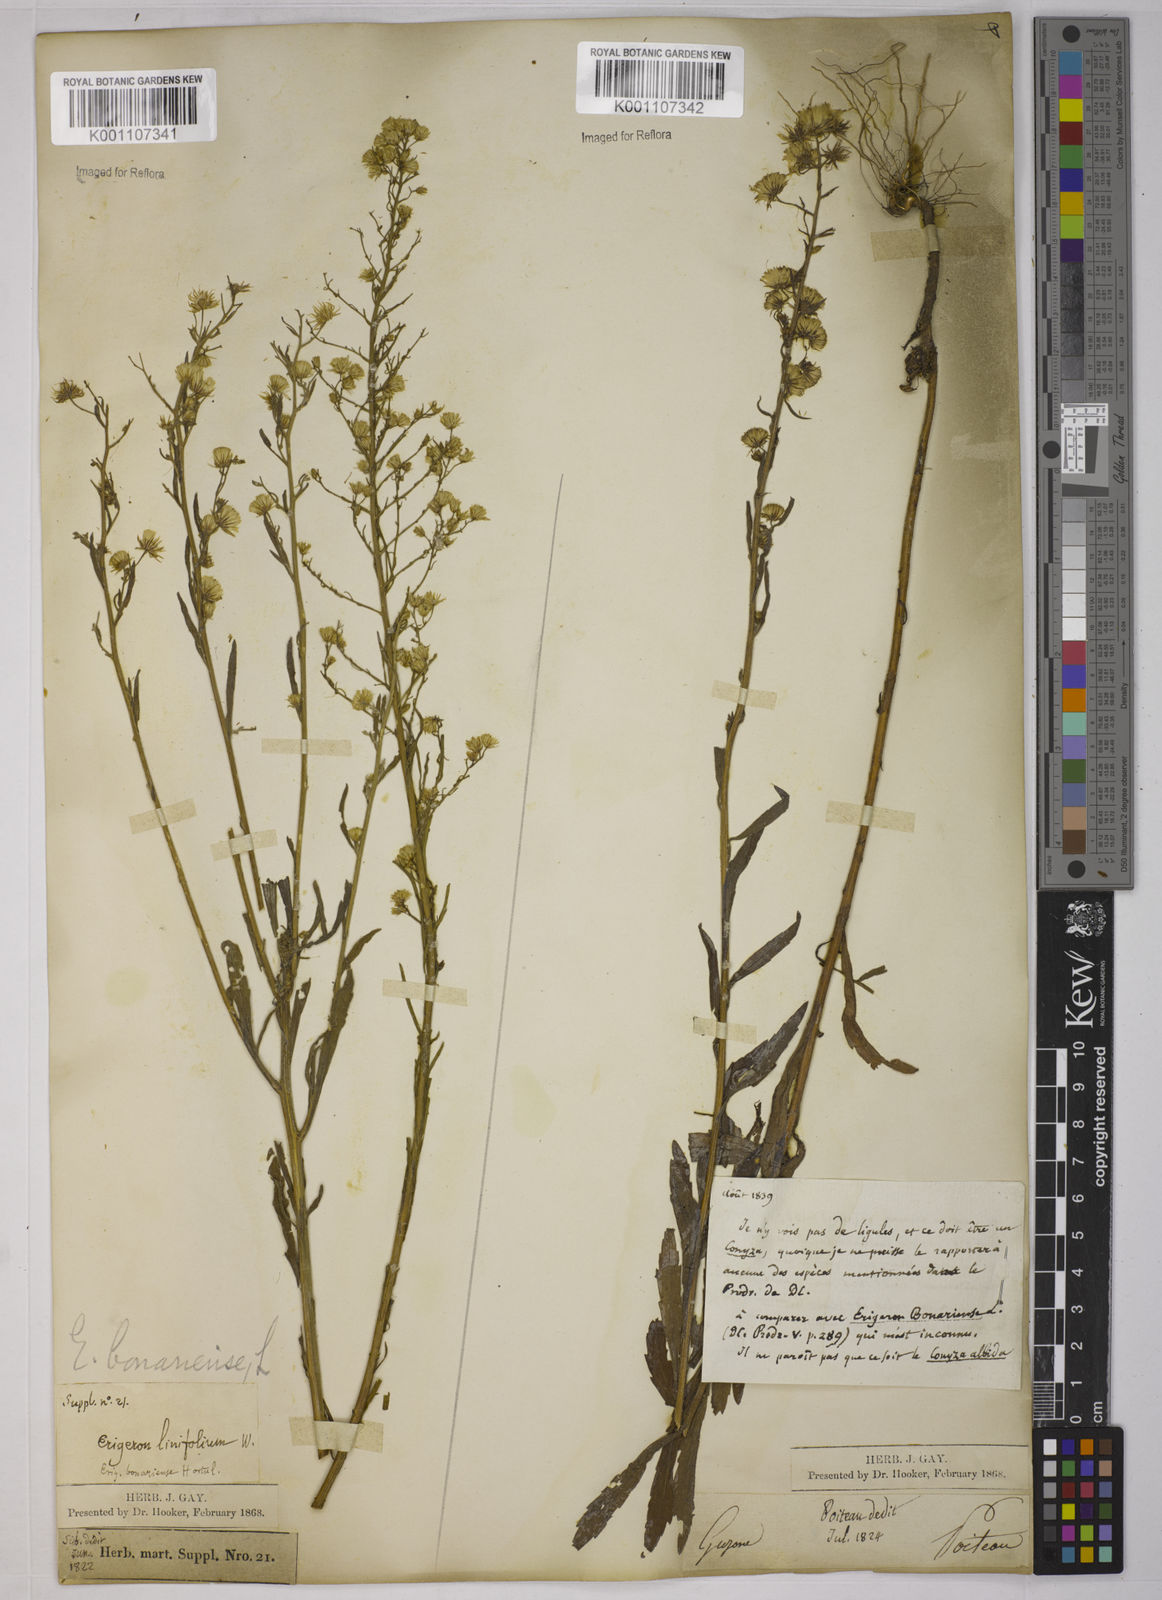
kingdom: Plantae
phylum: Tracheophyta
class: Magnoliopsida
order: Asterales
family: Asteraceae
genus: Erigeron
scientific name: Erigeron floribundus
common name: Bilbao fleabane
